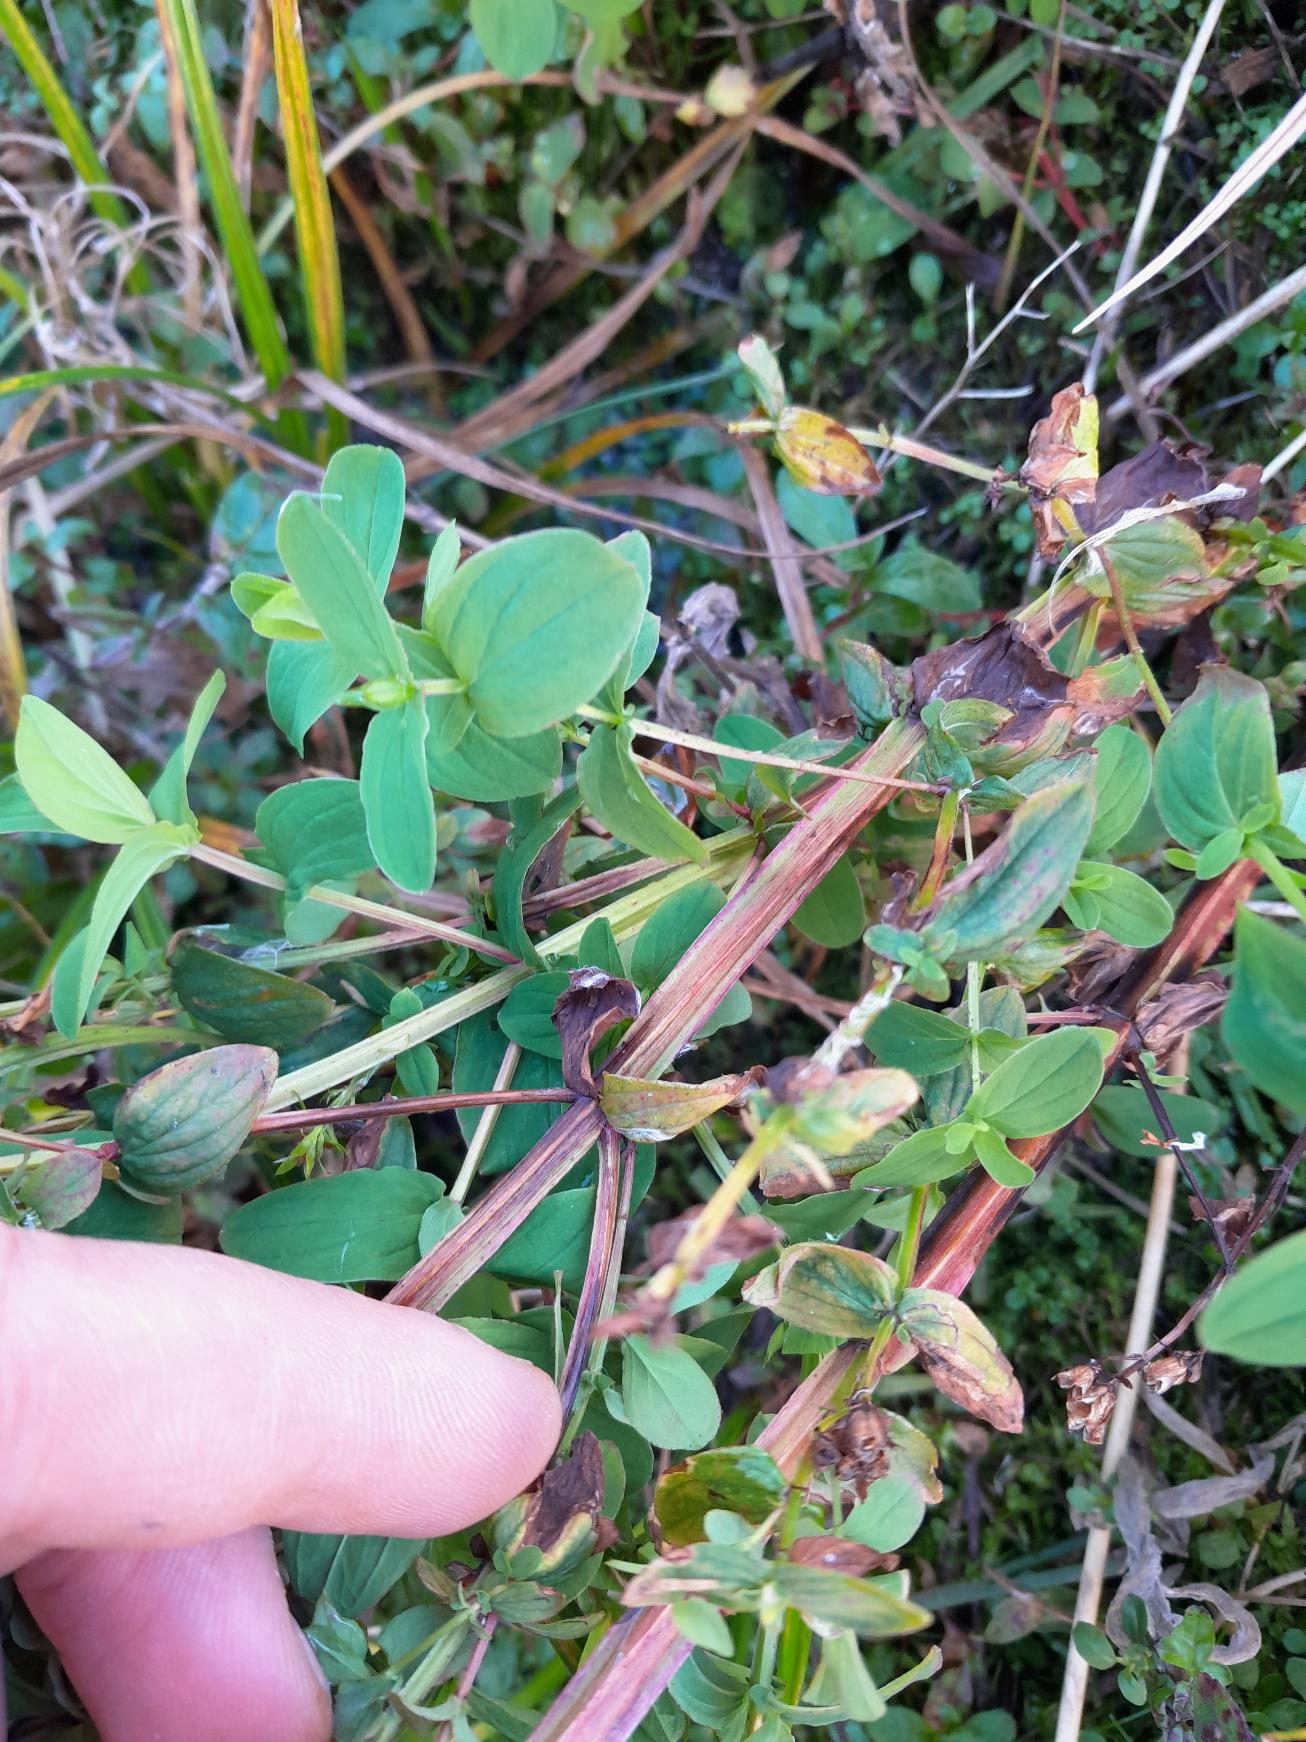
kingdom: Plantae
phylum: Tracheophyta
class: Magnoliopsida
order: Malpighiales
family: Hypericaceae
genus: Hypericum
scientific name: Hypericum tetrapterum
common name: Vinget perikon
